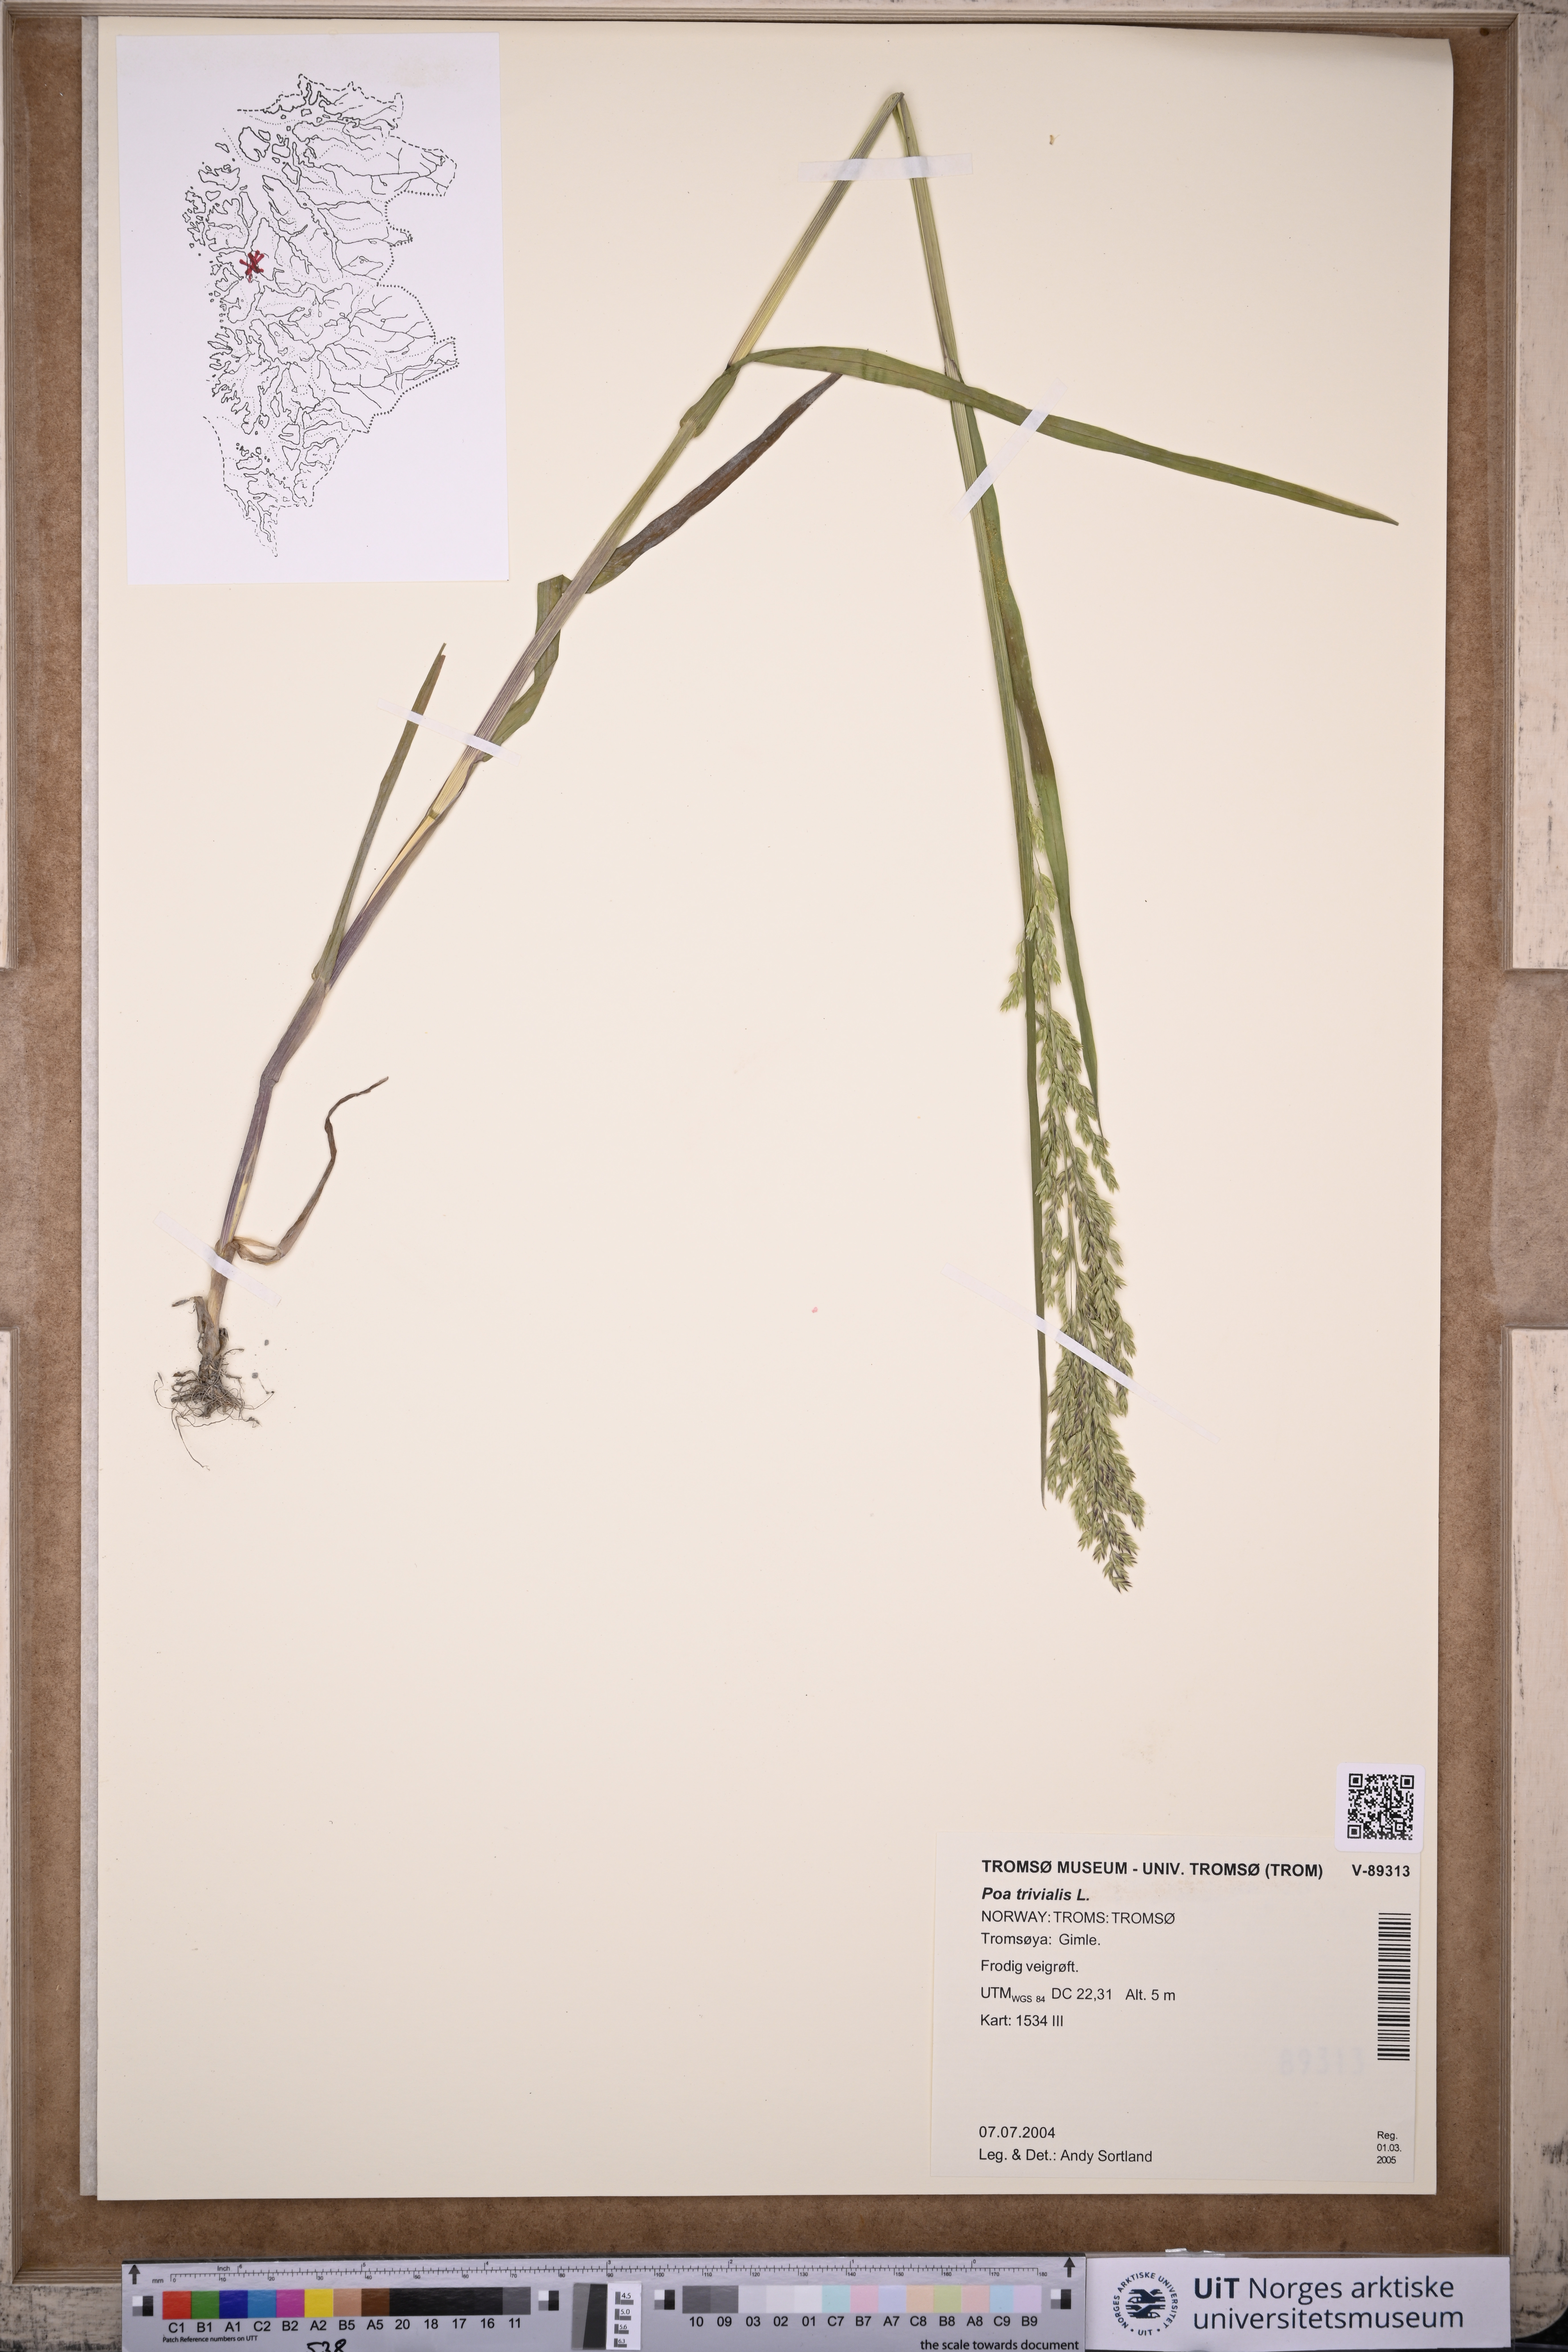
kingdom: Plantae
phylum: Tracheophyta
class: Liliopsida
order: Poales
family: Poaceae
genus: Poa
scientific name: Poa trivialis
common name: Rough bluegrass
